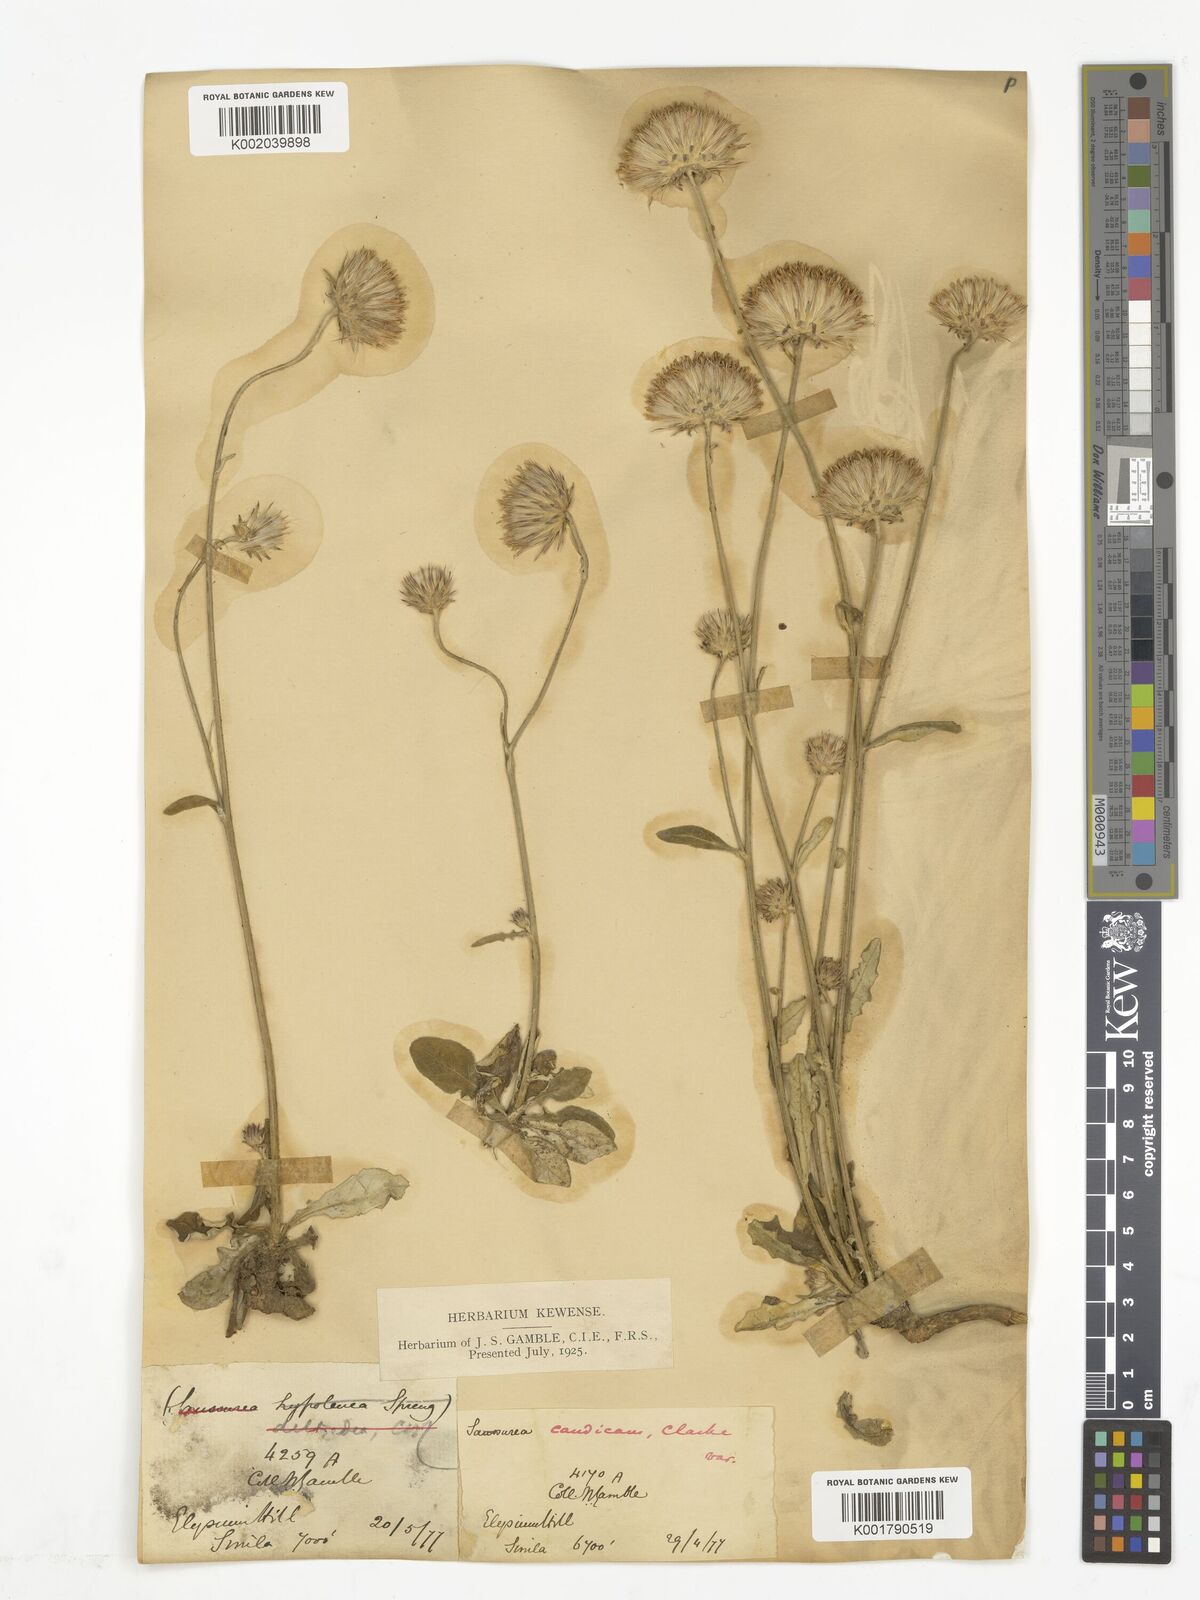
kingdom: Plantae
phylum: Tracheophyta
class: Magnoliopsida
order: Asterales
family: Asteraceae
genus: Saussurea
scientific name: Saussurea
